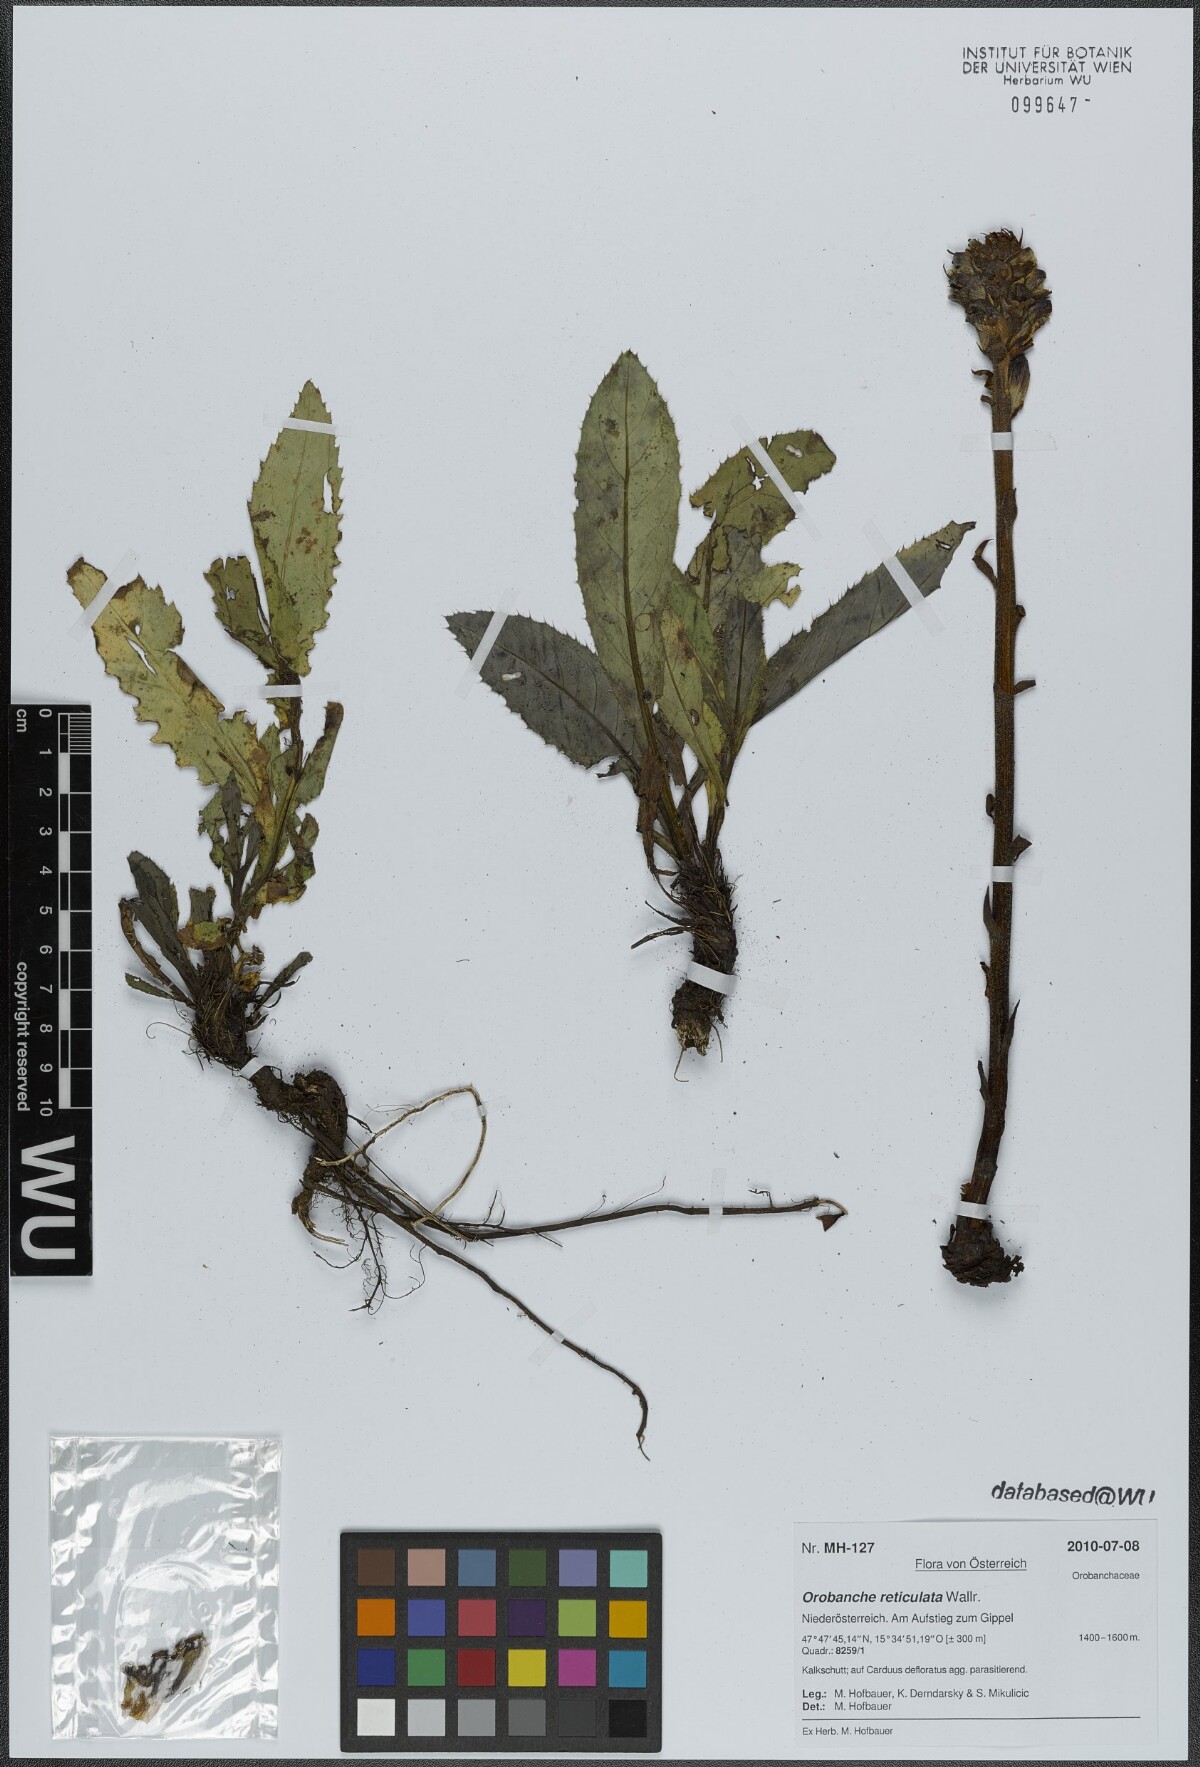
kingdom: Plantae
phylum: Tracheophyta
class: Magnoliopsida
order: Lamiales
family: Orobanchaceae
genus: Orobanche
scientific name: Orobanche reticulata
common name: Thistle broomrape
